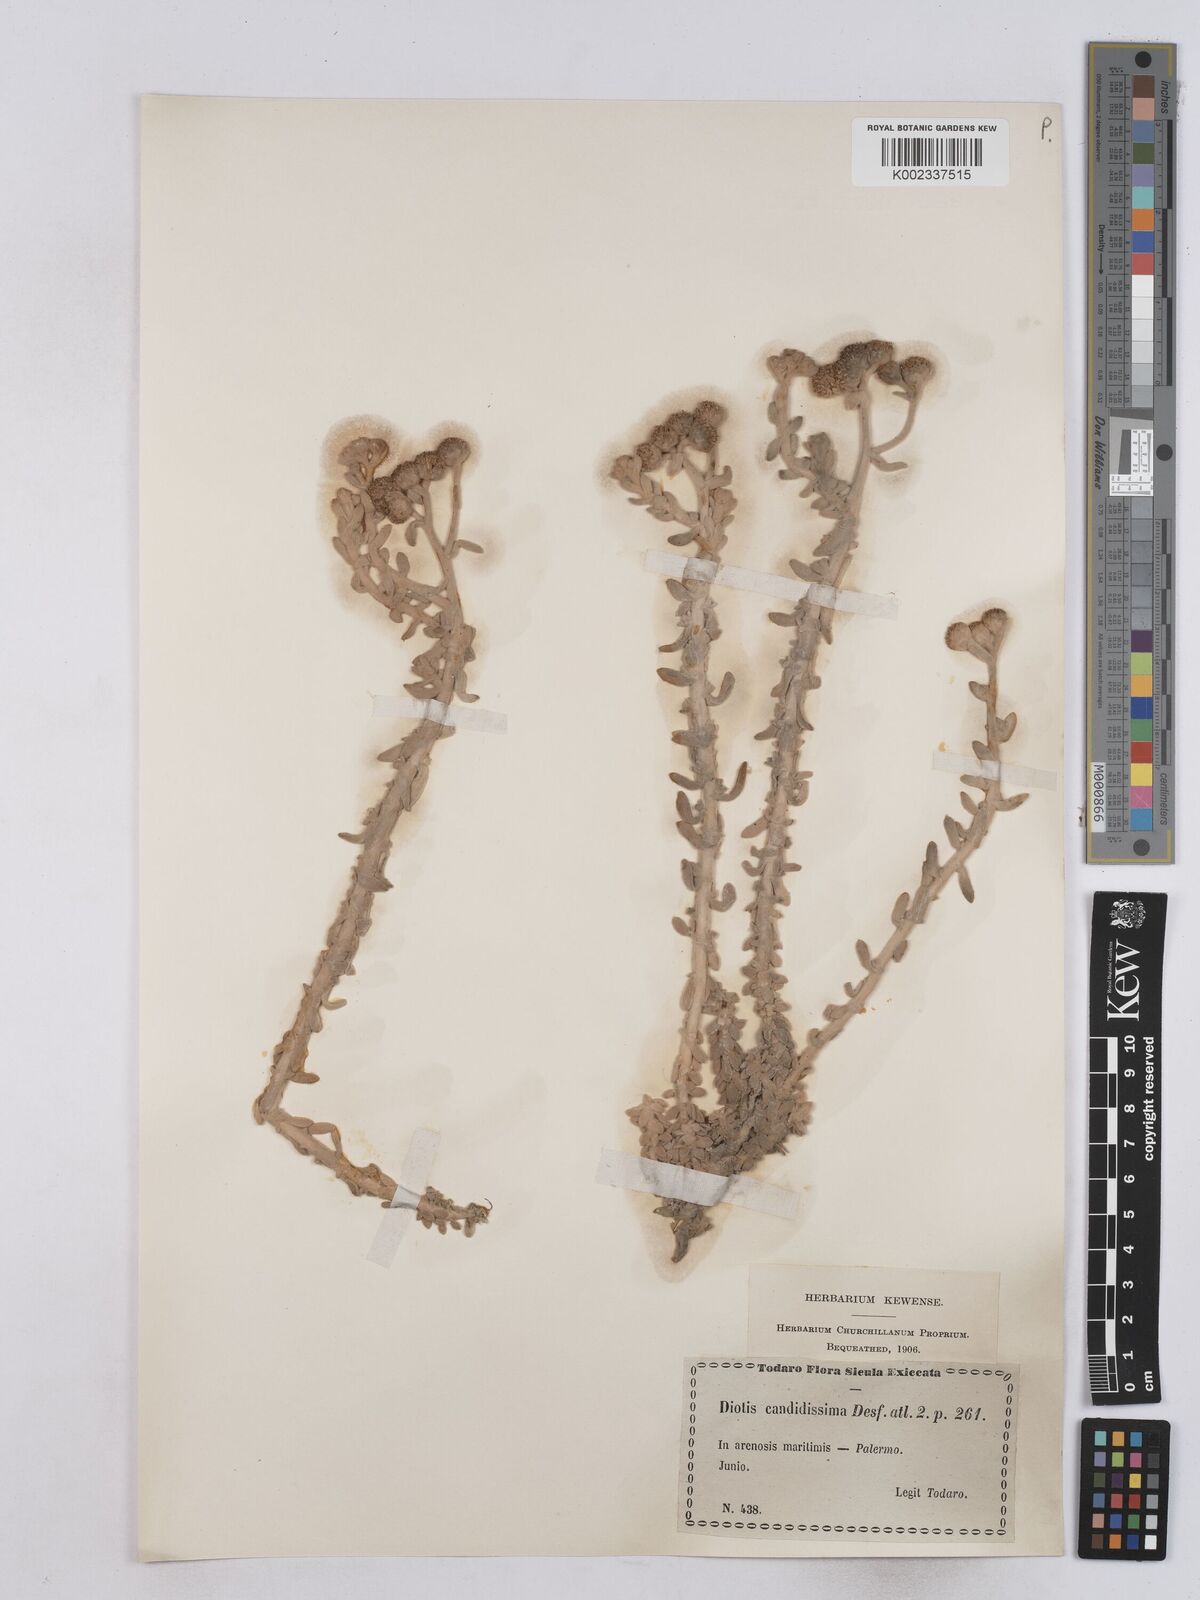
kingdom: Plantae
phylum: Tracheophyta
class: Magnoliopsida
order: Asterales
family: Asteraceae
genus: Achillea
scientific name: Achillea maritima
